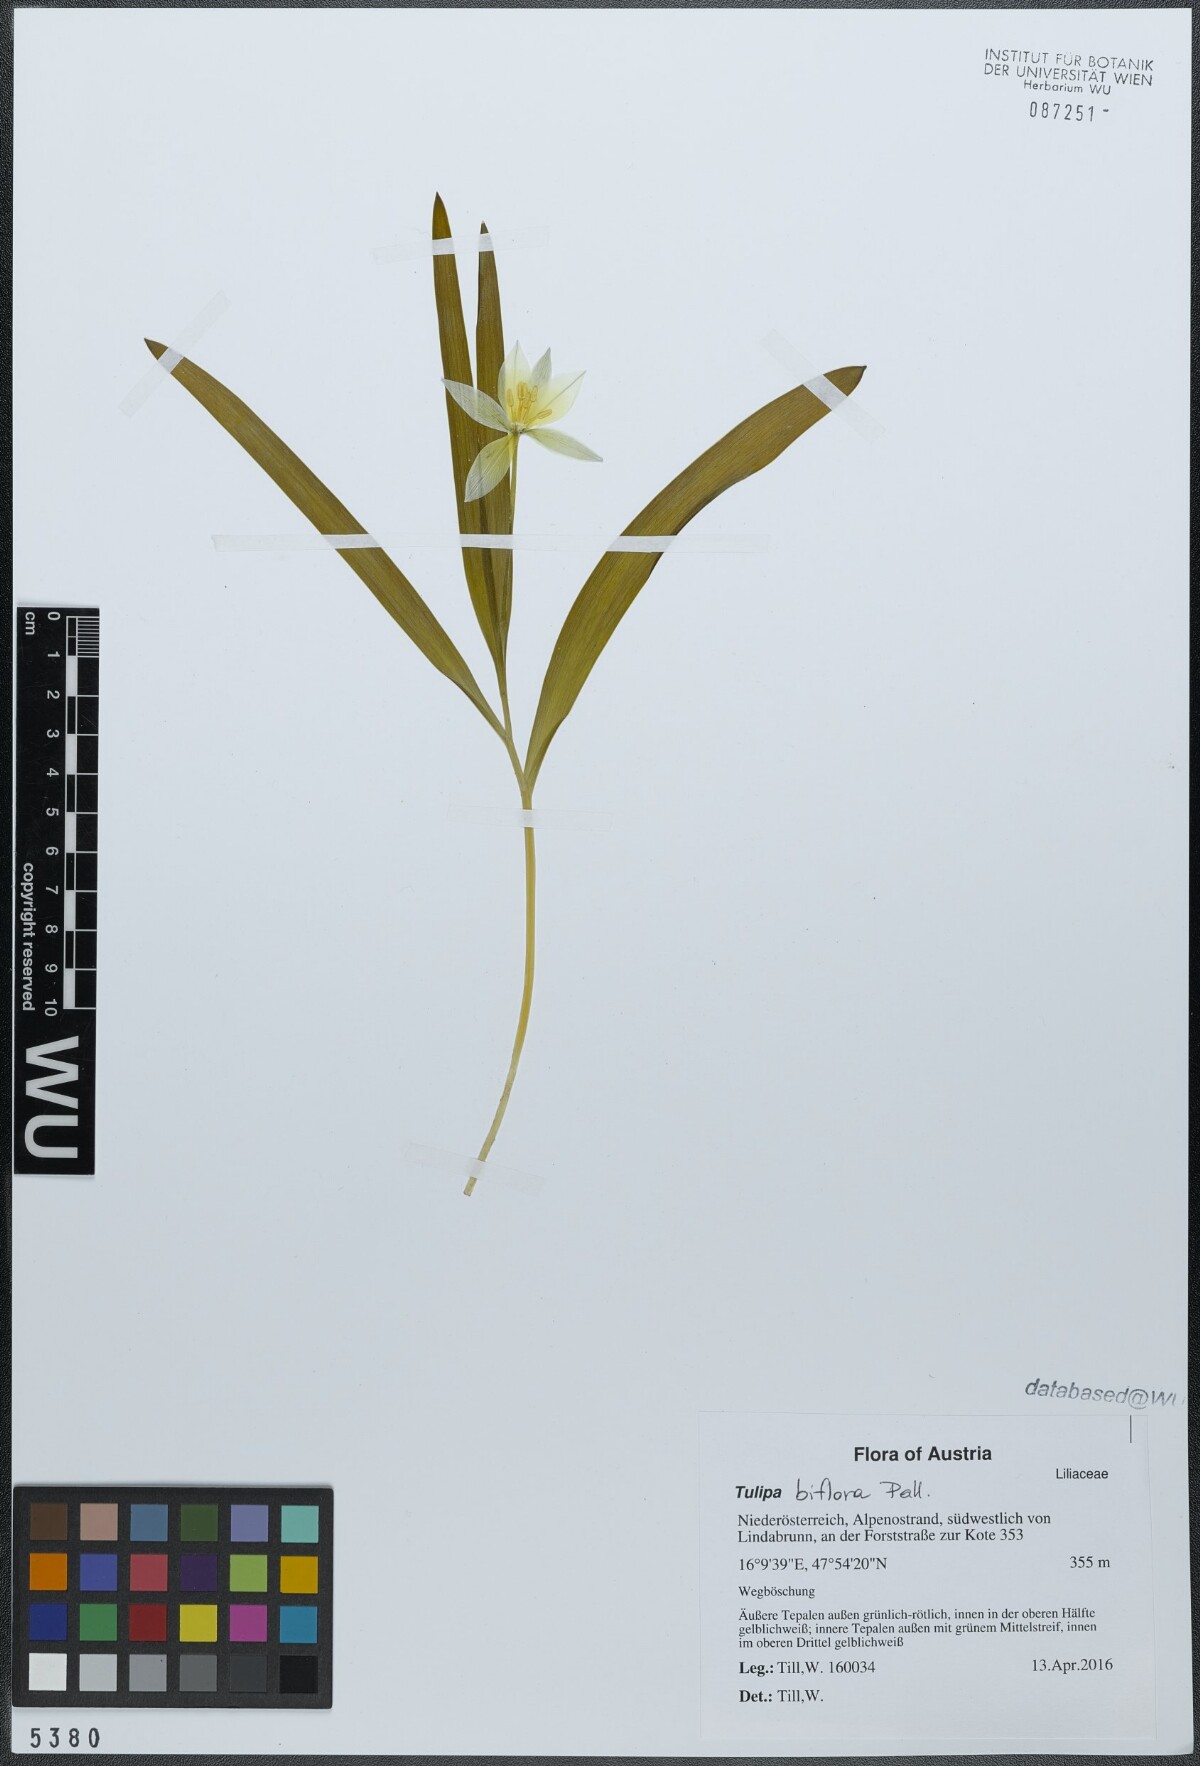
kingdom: Plantae
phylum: Tracheophyta
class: Liliopsida
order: Liliales
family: Liliaceae
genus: Tulipa
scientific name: Tulipa biflora
